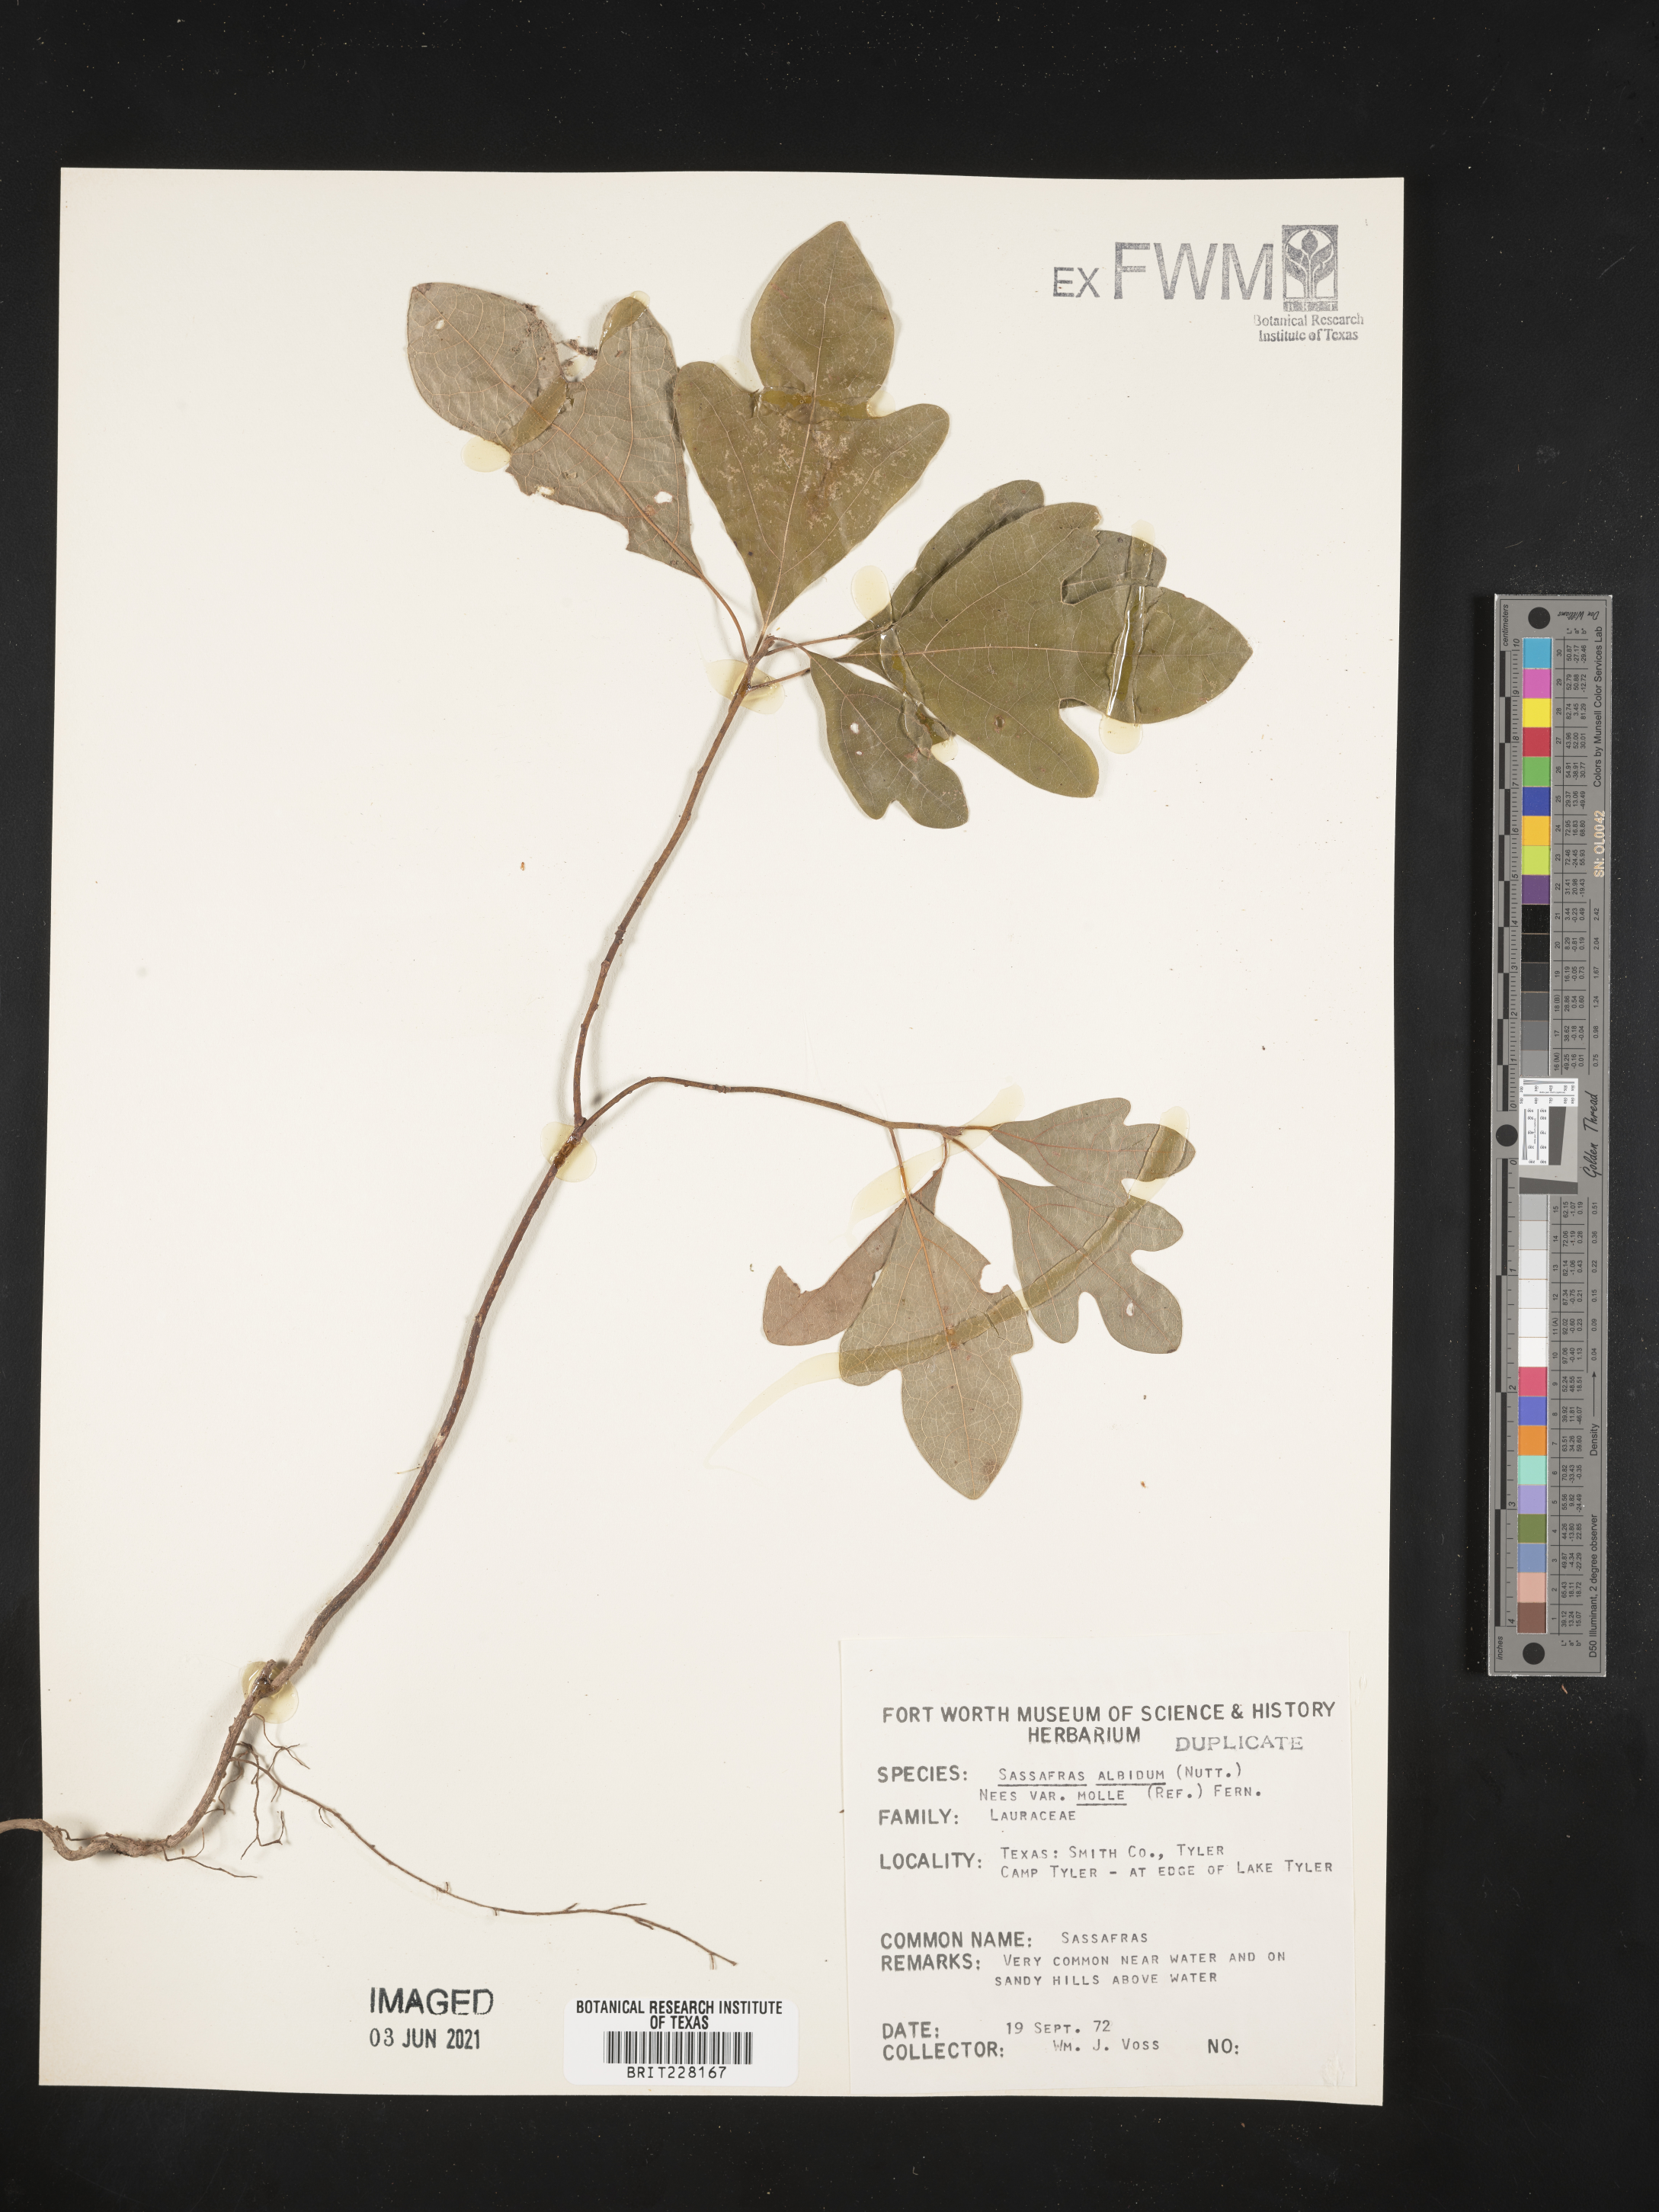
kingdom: Plantae
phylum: Tracheophyta
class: Magnoliopsida
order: Laurales
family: Lauraceae
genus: Sassafras
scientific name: Sassafras albidum
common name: Sassafras
